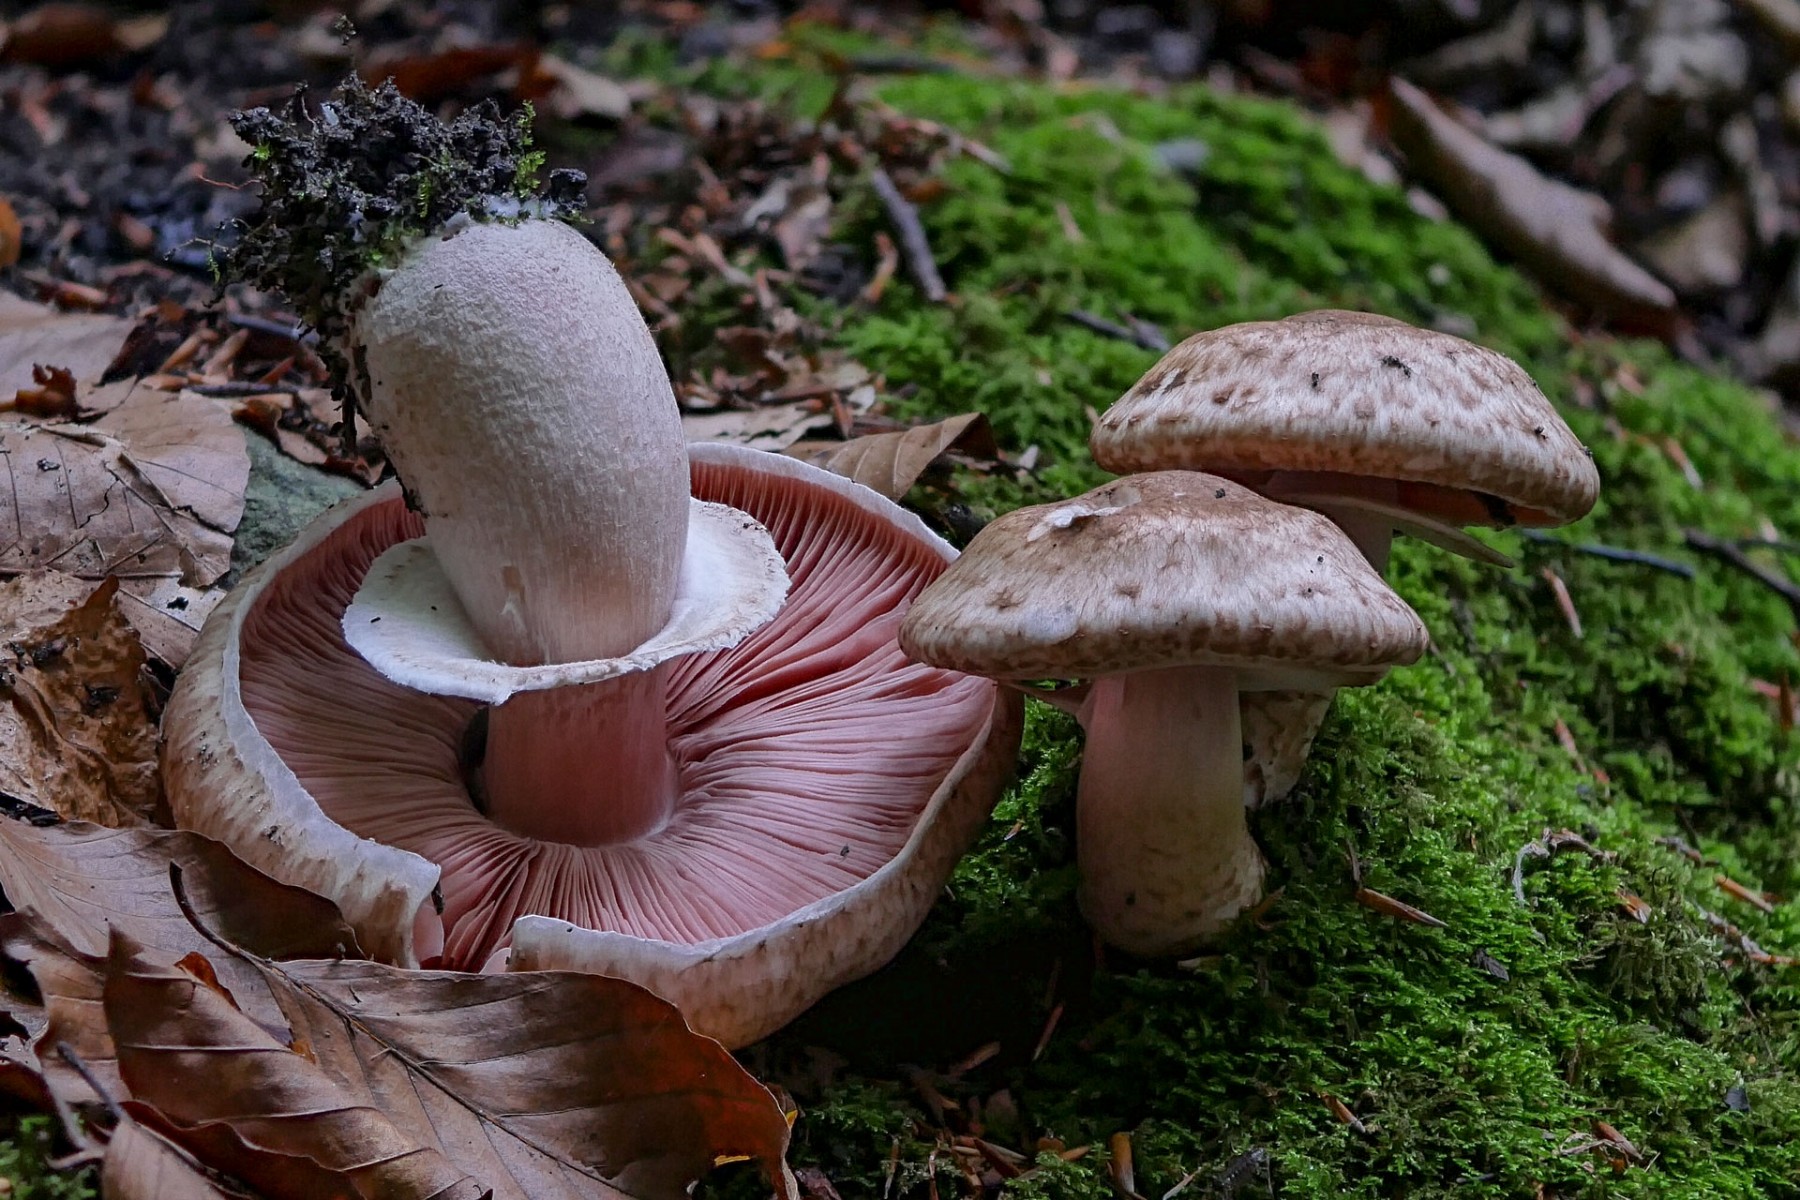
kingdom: Fungi
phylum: Basidiomycota
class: Agaricomycetes
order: Agaricales
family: Agaricaceae
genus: Agaricus
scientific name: Agaricus
